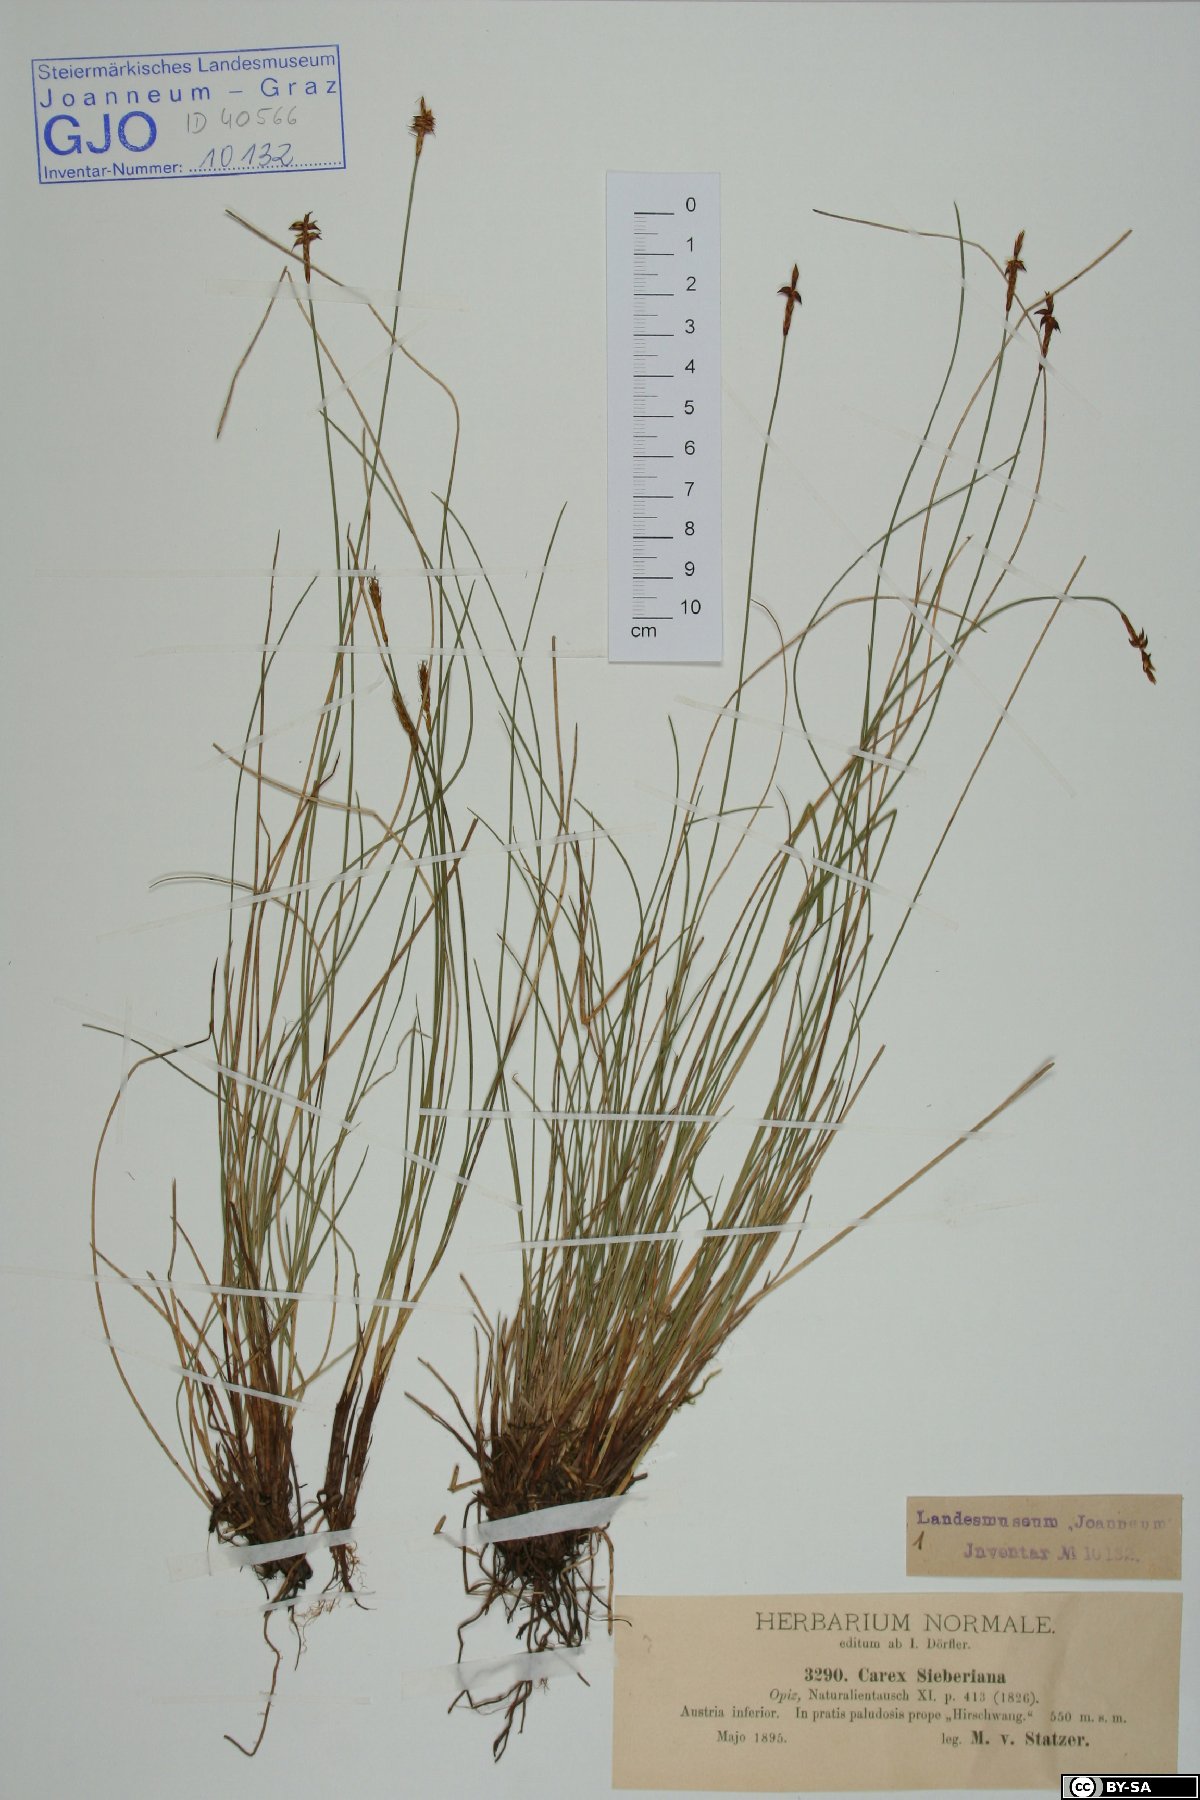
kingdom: Plantae
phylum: Tracheophyta
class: Liliopsida
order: Poales
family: Cyperaceae
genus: Carex
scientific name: Carex davalliana
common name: Davall's sedge
